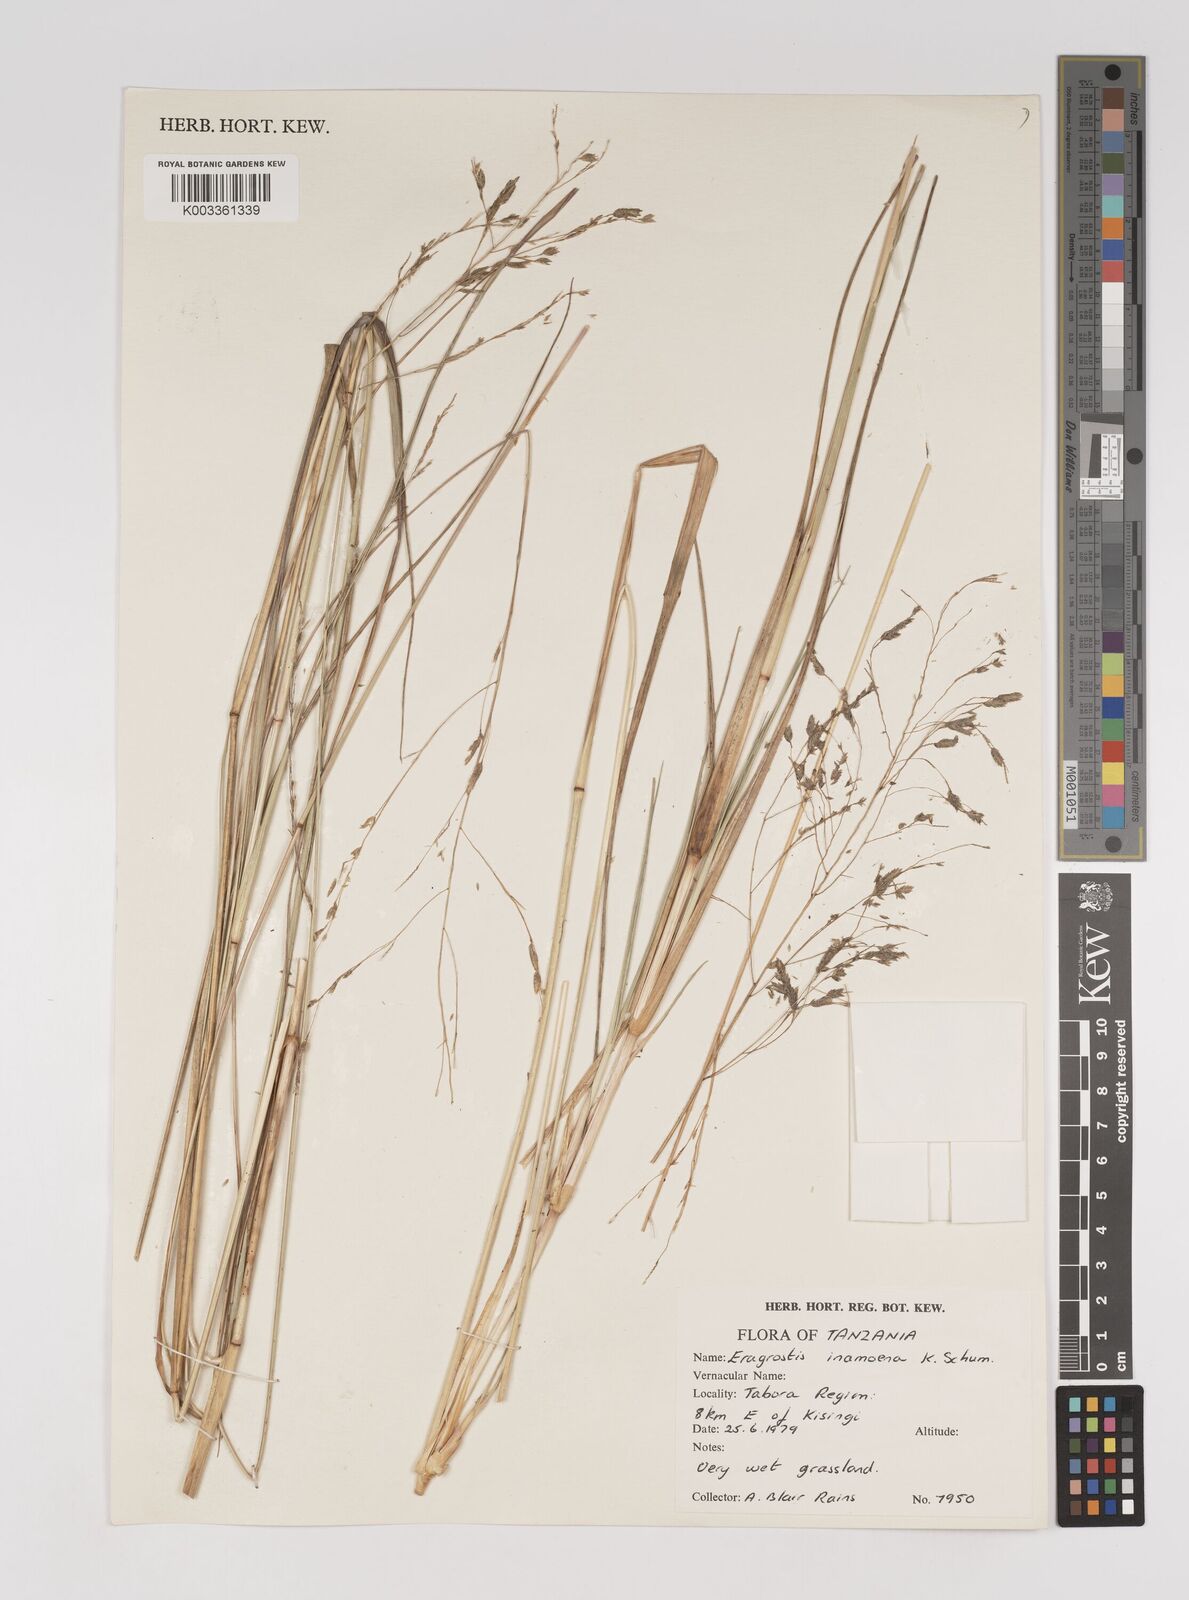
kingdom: Plantae
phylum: Tracheophyta
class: Liliopsida
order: Poales
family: Poaceae
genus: Eragrostis
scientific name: Eragrostis inamoena
